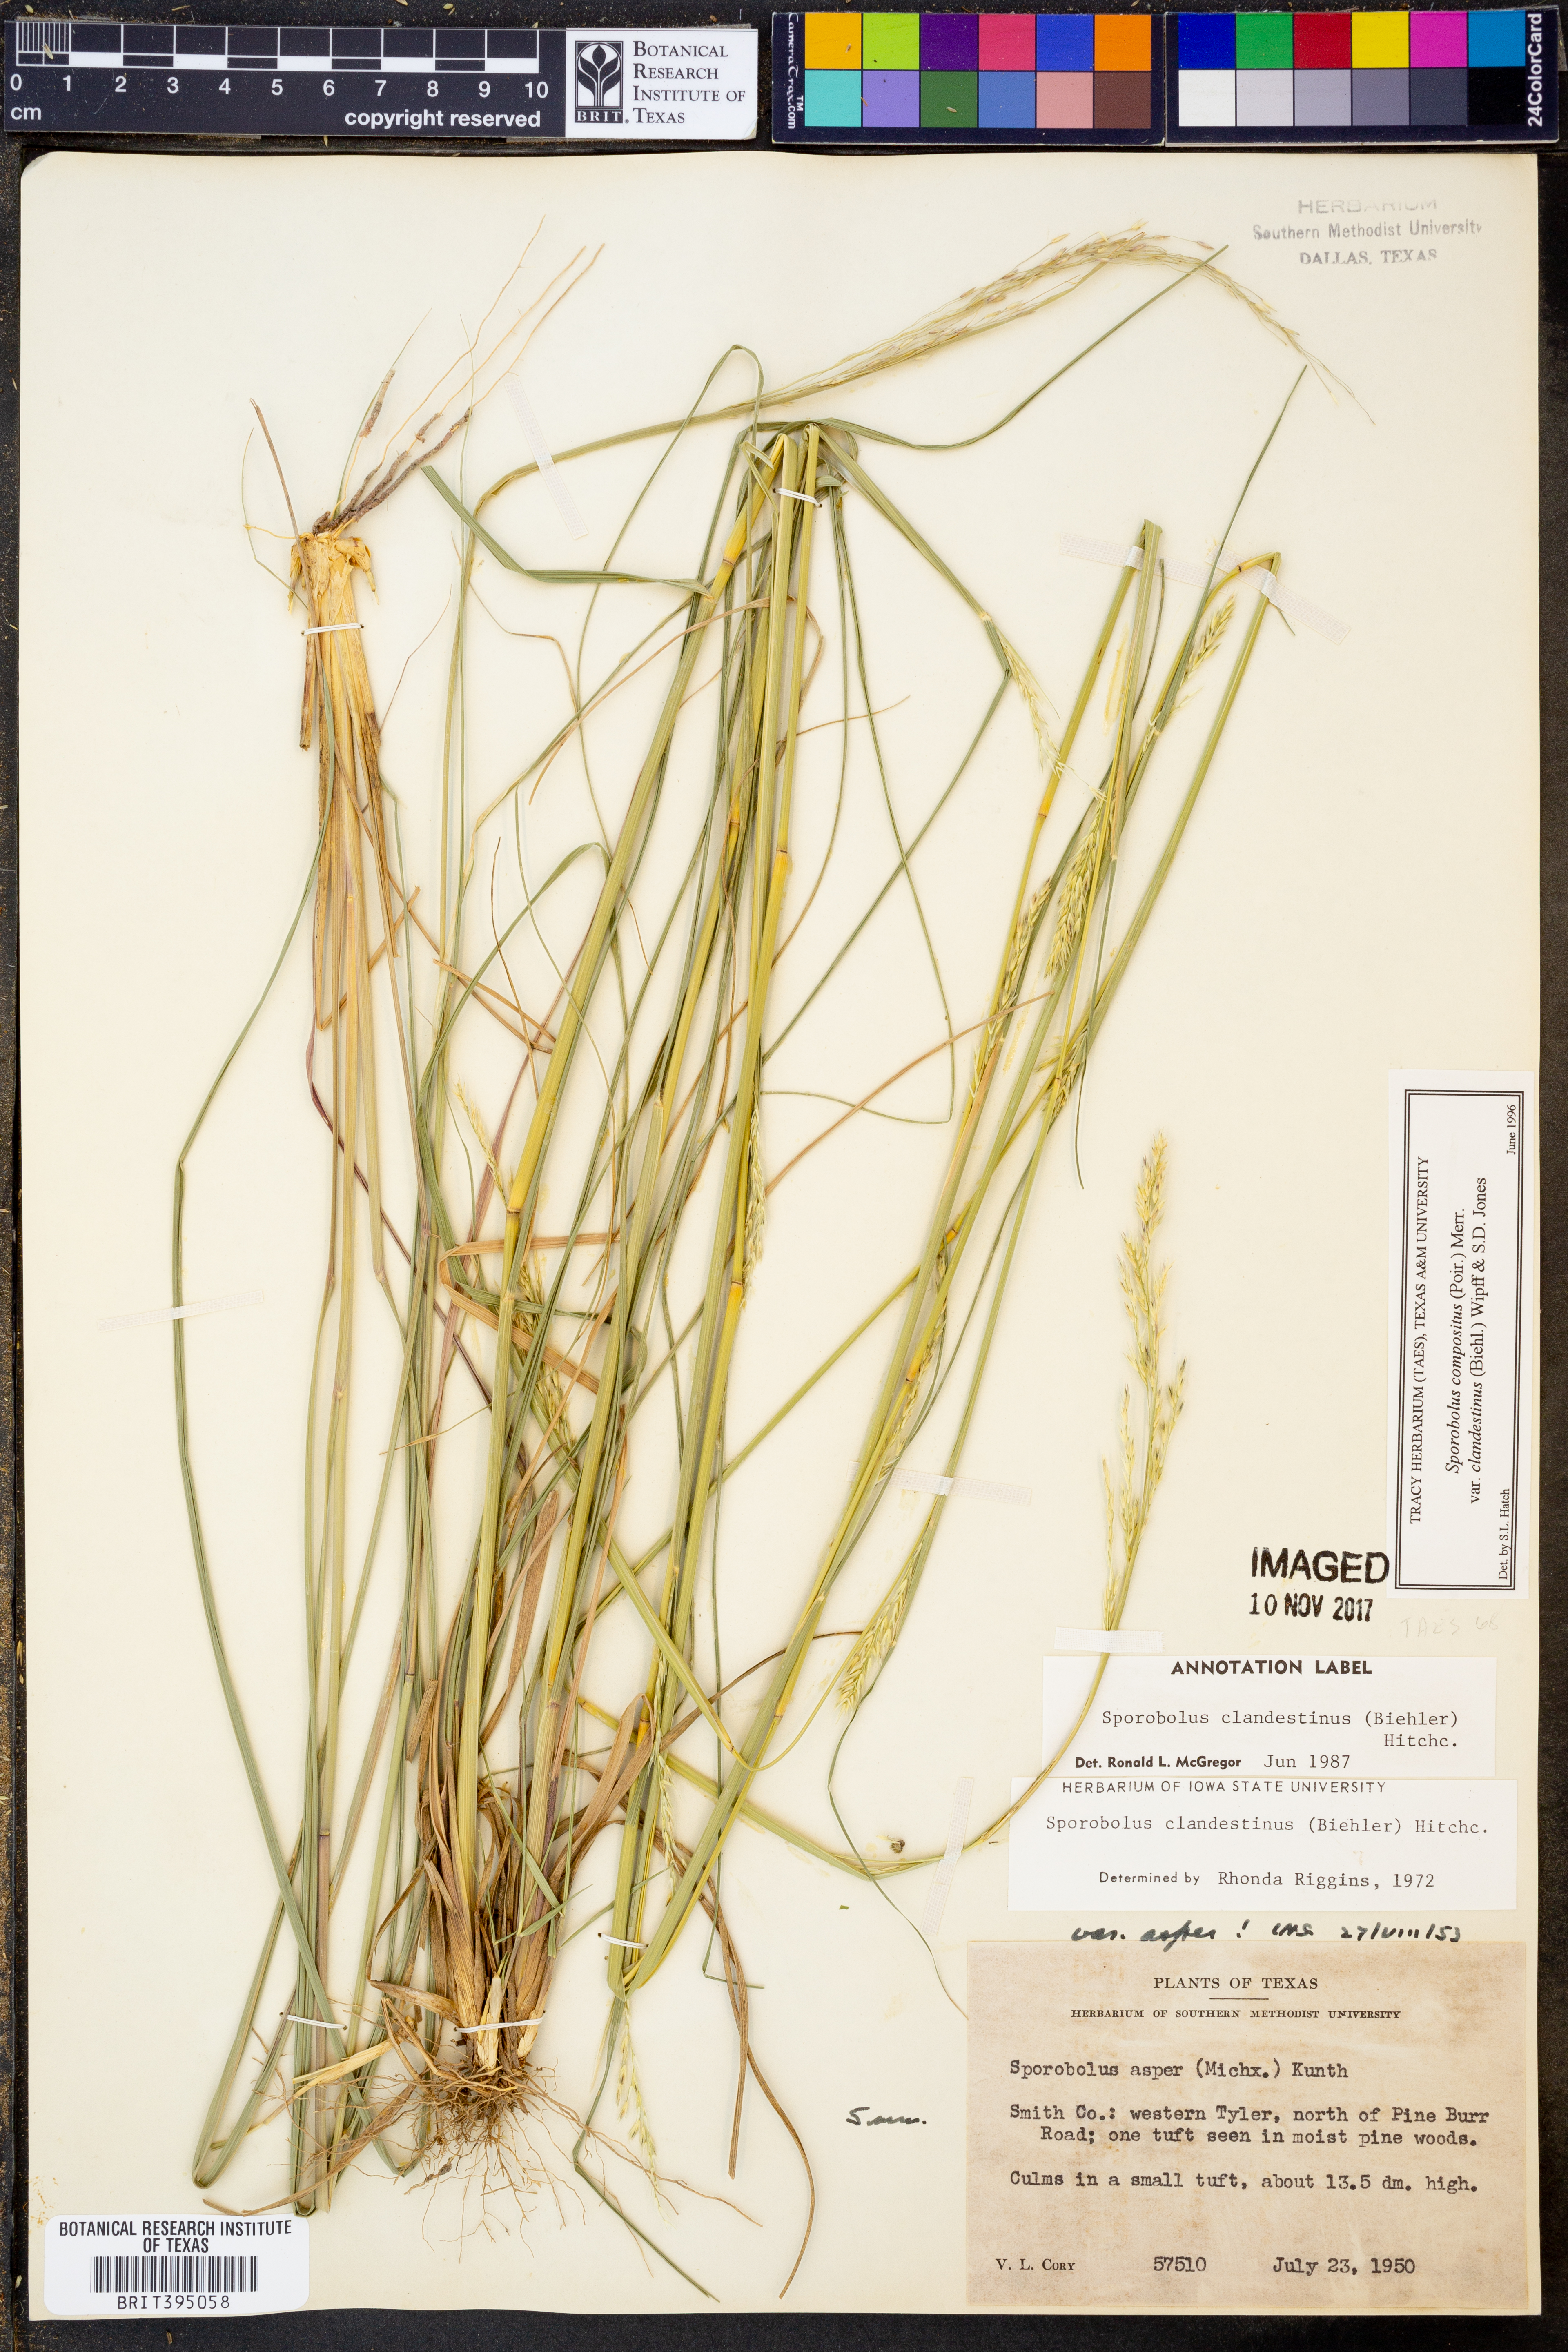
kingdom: Plantae
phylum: Tracheophyta
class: Liliopsida
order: Poales
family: Poaceae
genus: Sporobolus
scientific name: Sporobolus clandestinus
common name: Hidden dropseed
